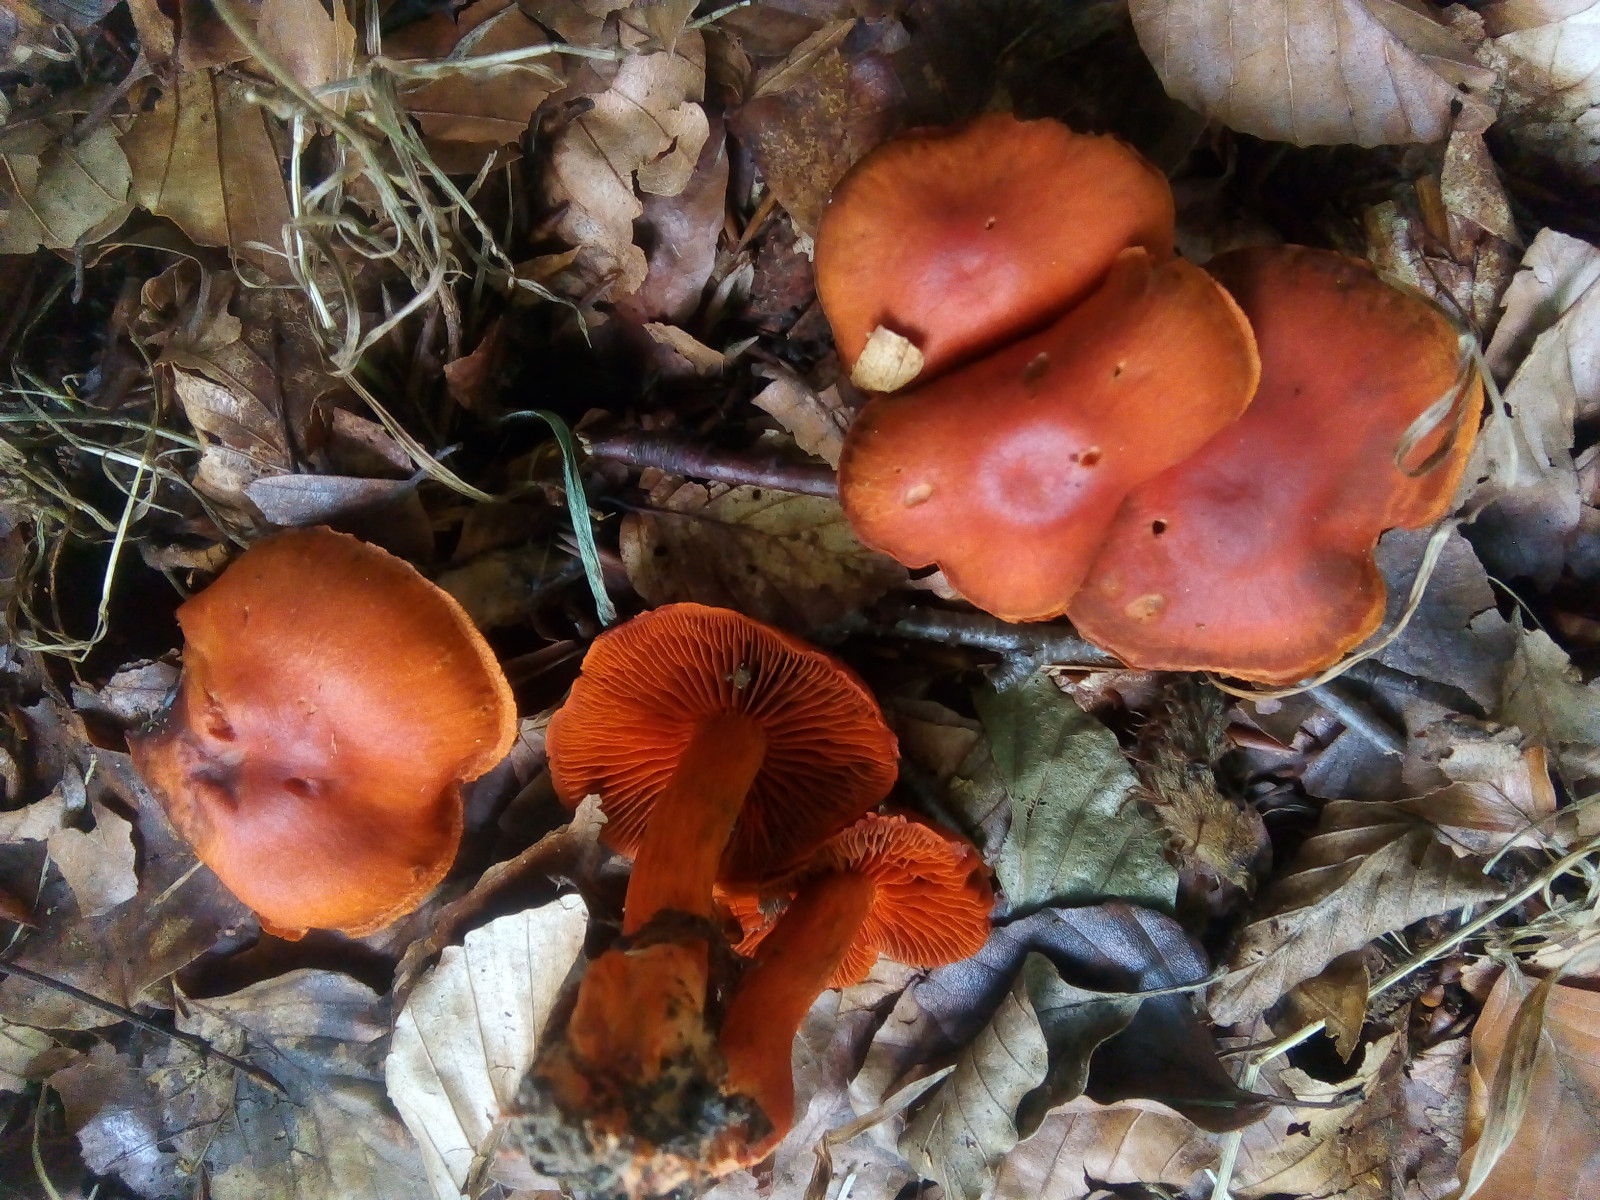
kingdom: Fungi
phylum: Basidiomycota
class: Agaricomycetes
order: Agaricales
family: Cortinariaceae
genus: Cortinarius
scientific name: Cortinarius cinnabarinus
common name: cinnober-slørhat
